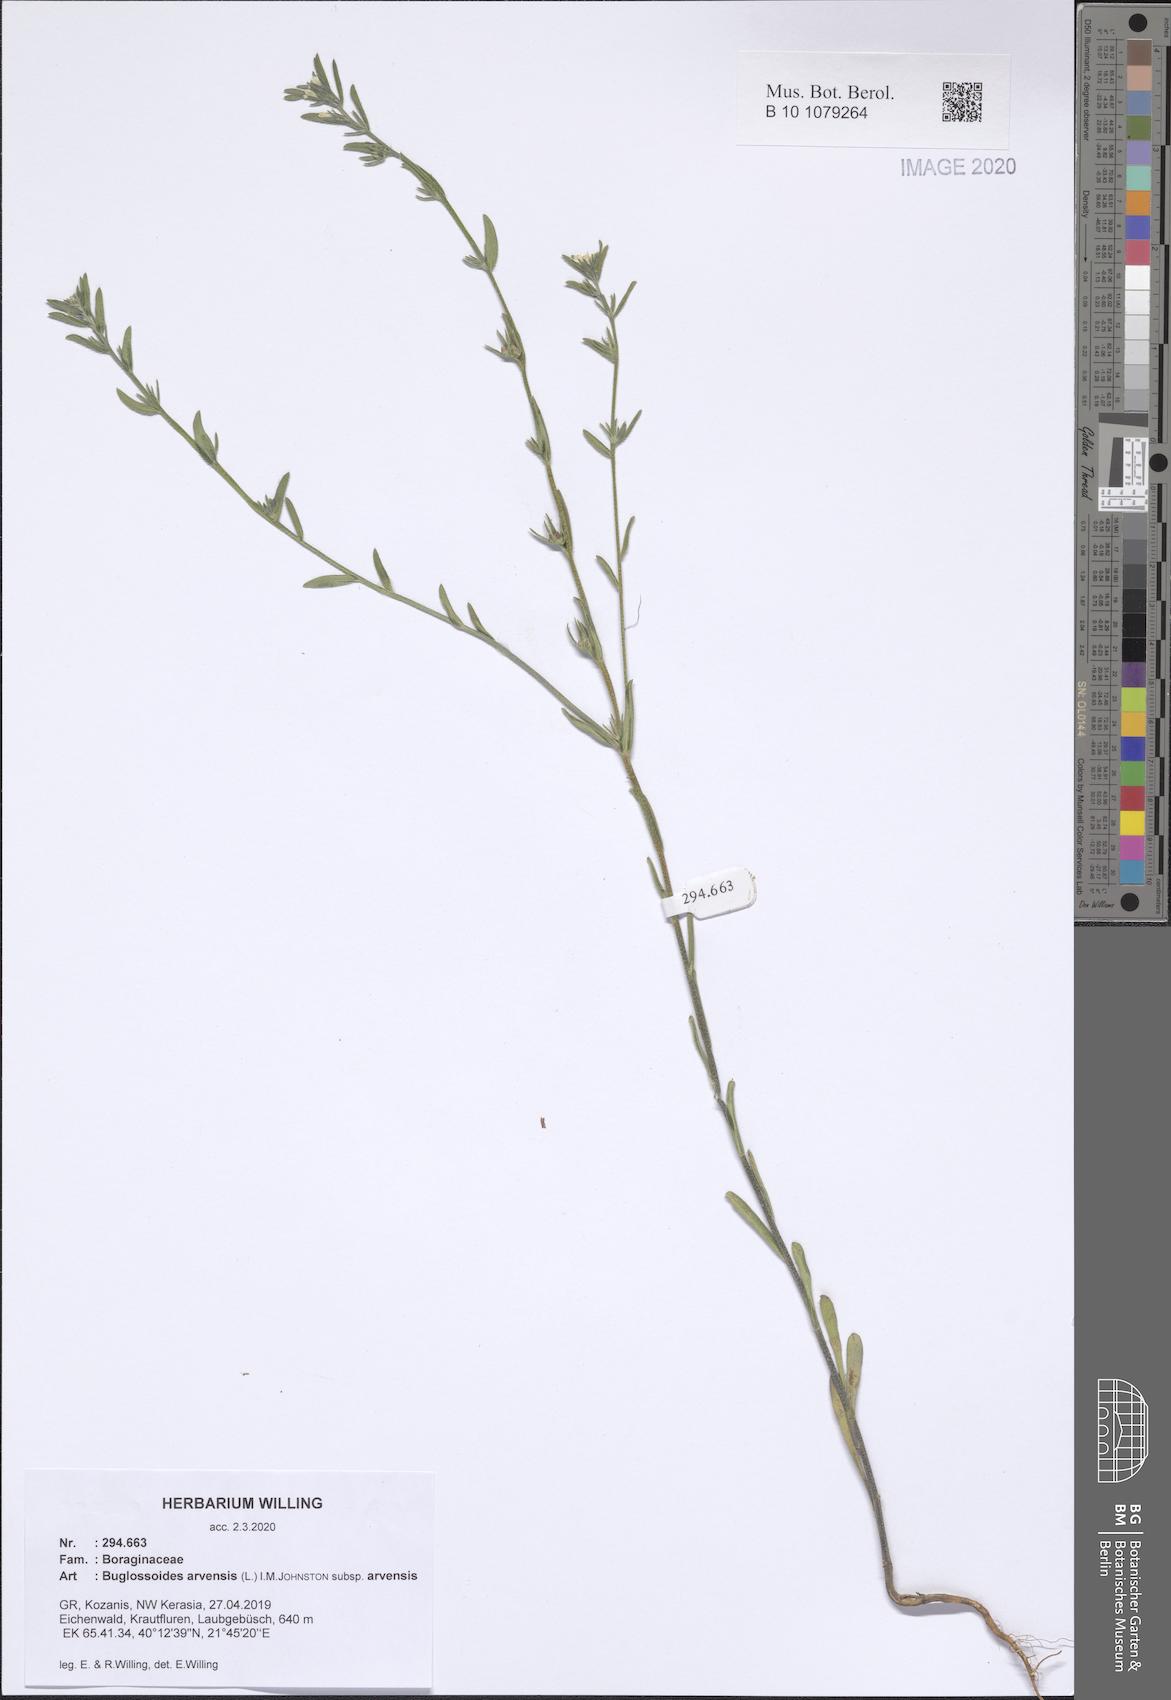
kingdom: Plantae
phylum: Tracheophyta
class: Magnoliopsida
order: Boraginales
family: Boraginaceae
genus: Buglossoides
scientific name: Buglossoides arvensis
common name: Corn gromwell
